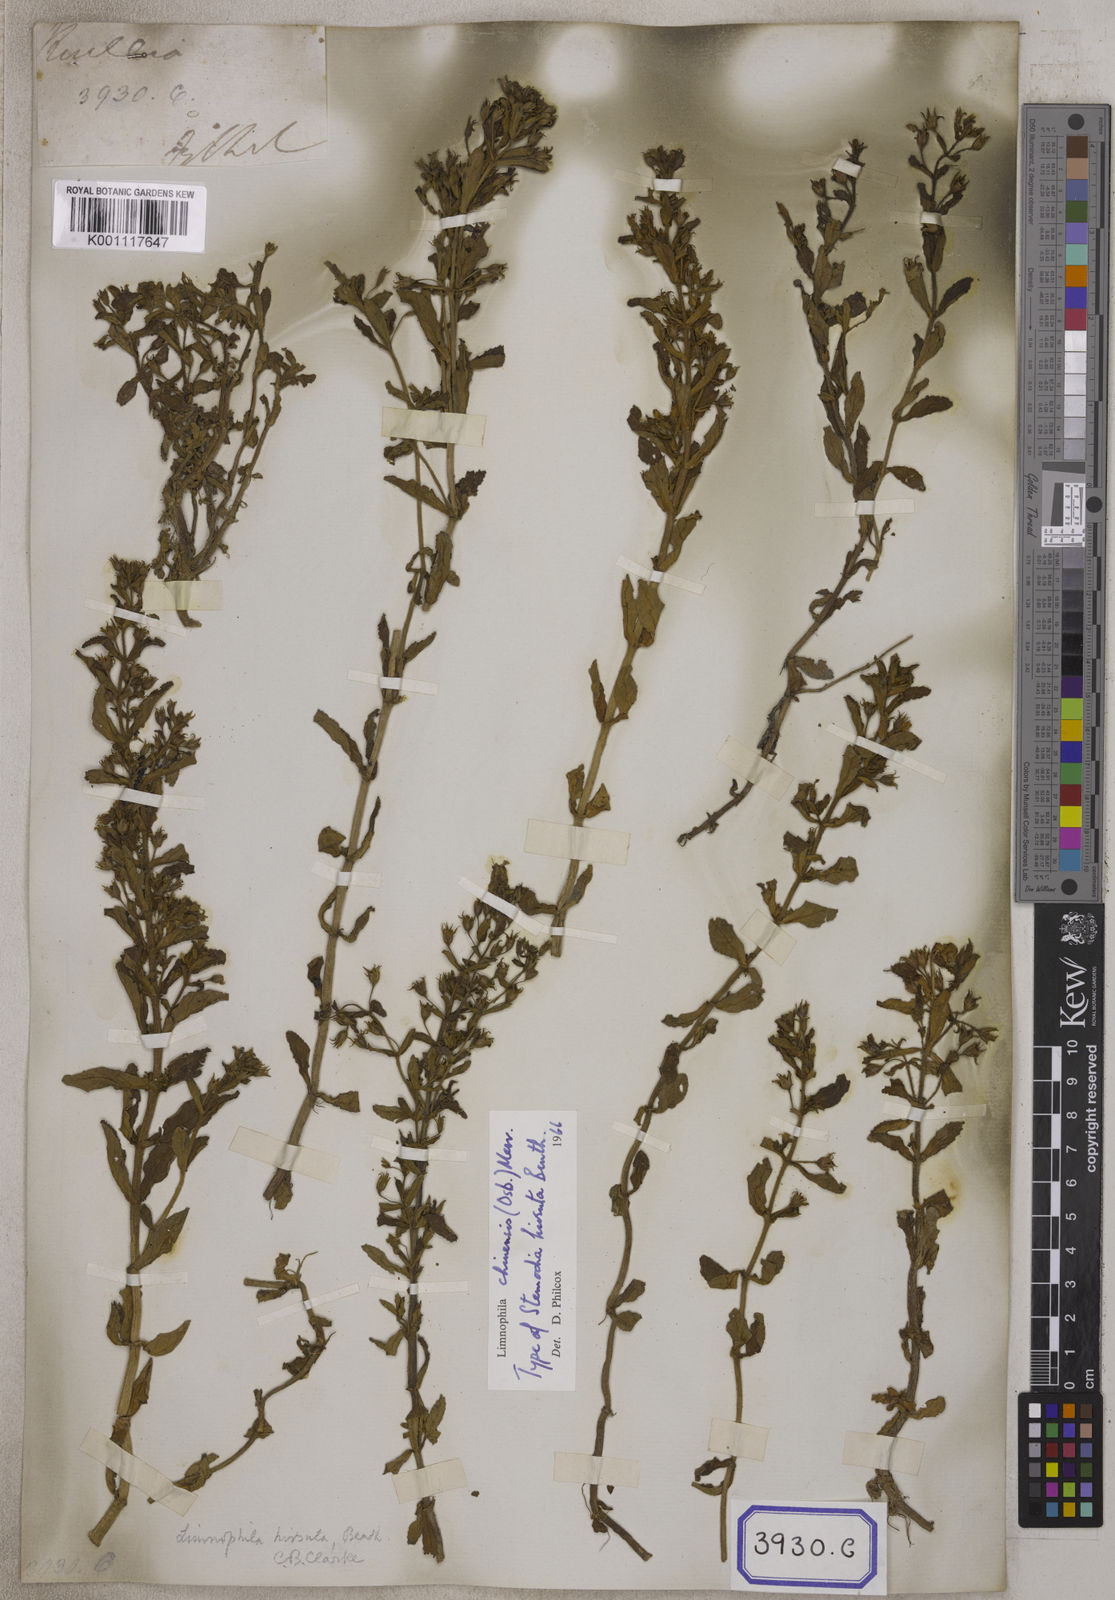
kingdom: Plantae
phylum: Tracheophyta
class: Magnoliopsida
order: Lamiales
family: Plantaginaceae
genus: Stemodia
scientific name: Stemodia
